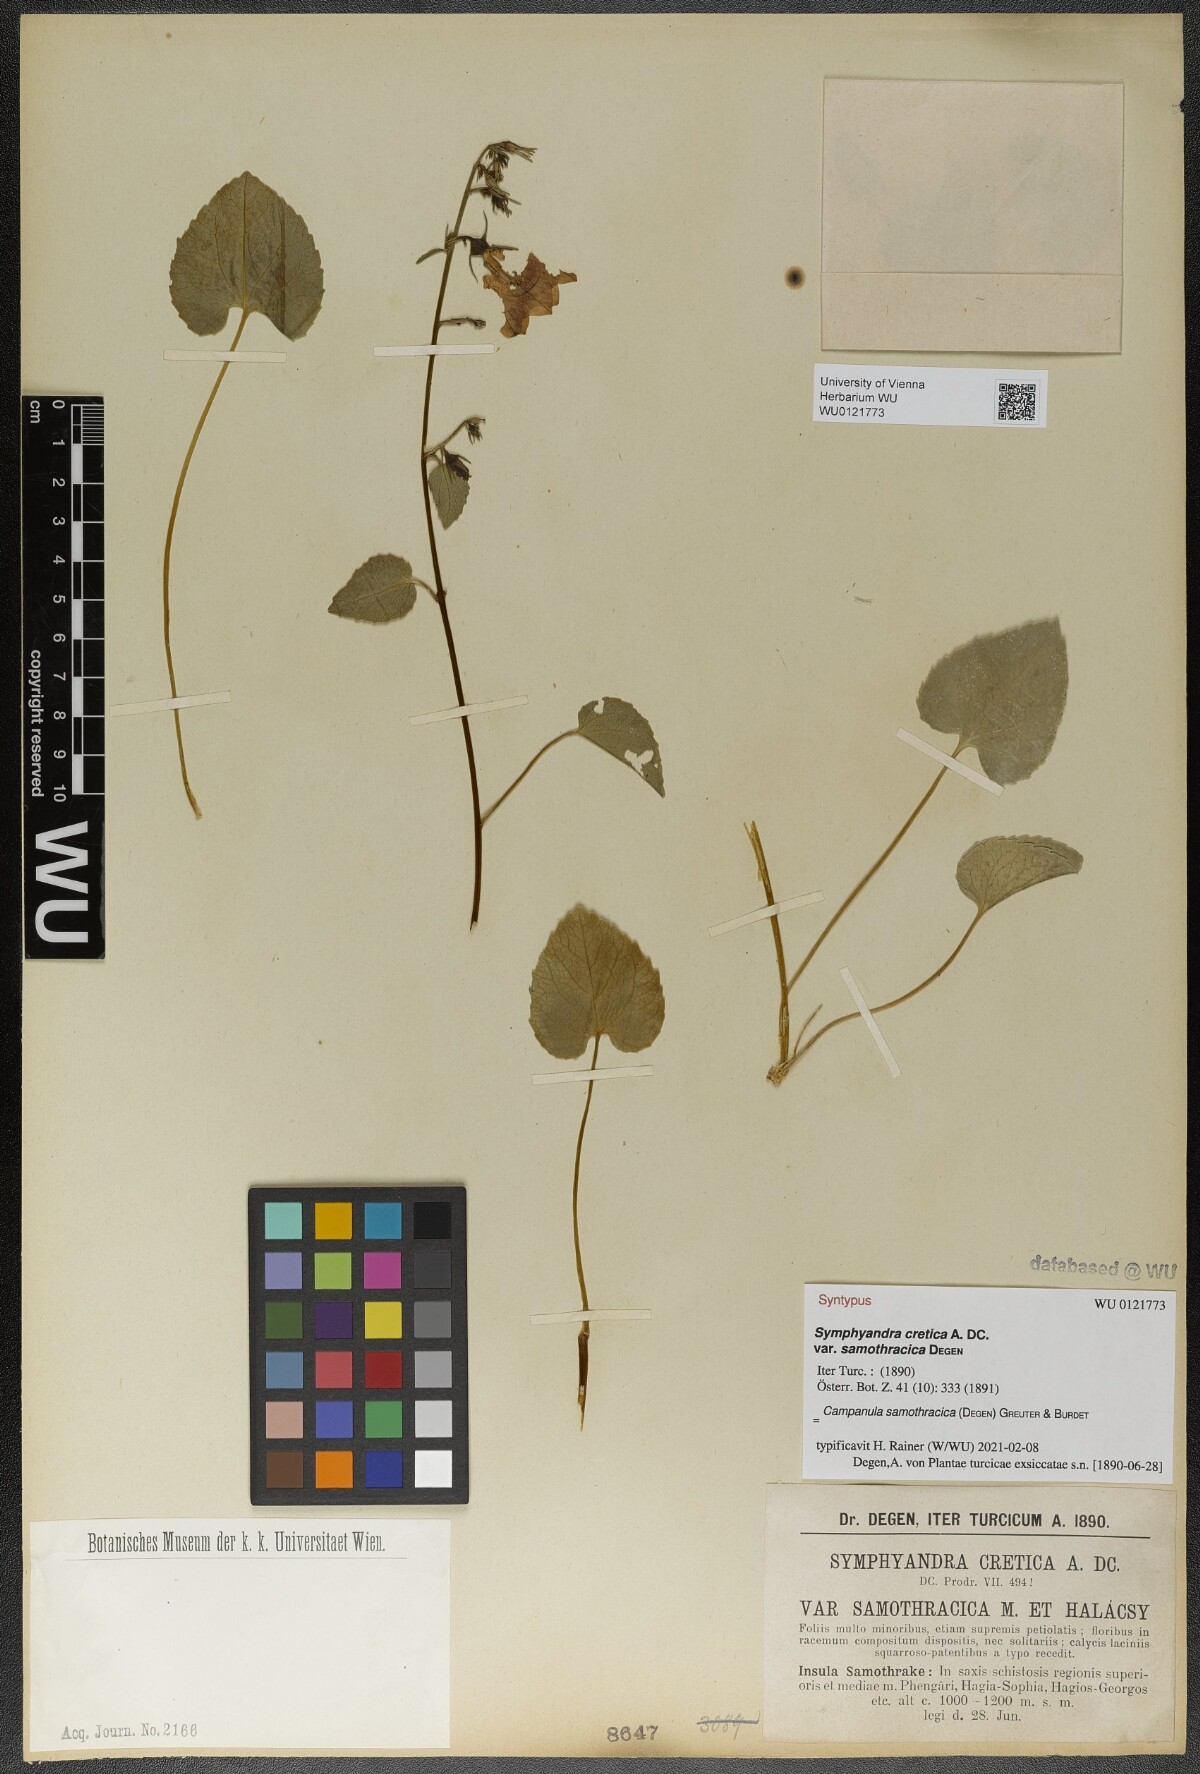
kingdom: Plantae
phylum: Tracheophyta
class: Magnoliopsida
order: Asterales
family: Campanulaceae
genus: Campanula
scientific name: Campanula samothracica
